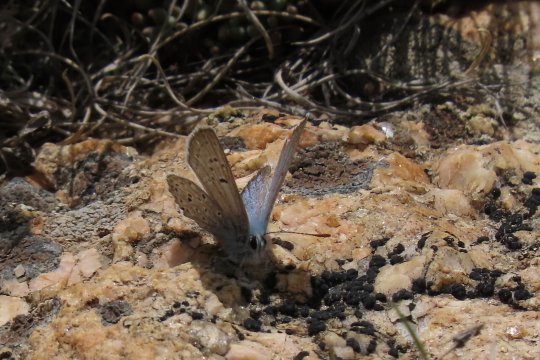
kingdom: Animalia
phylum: Arthropoda
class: Insecta
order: Lepidoptera
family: Lycaenidae
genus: Plebejus
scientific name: Plebejus saepiolus
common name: Greenish Blue
